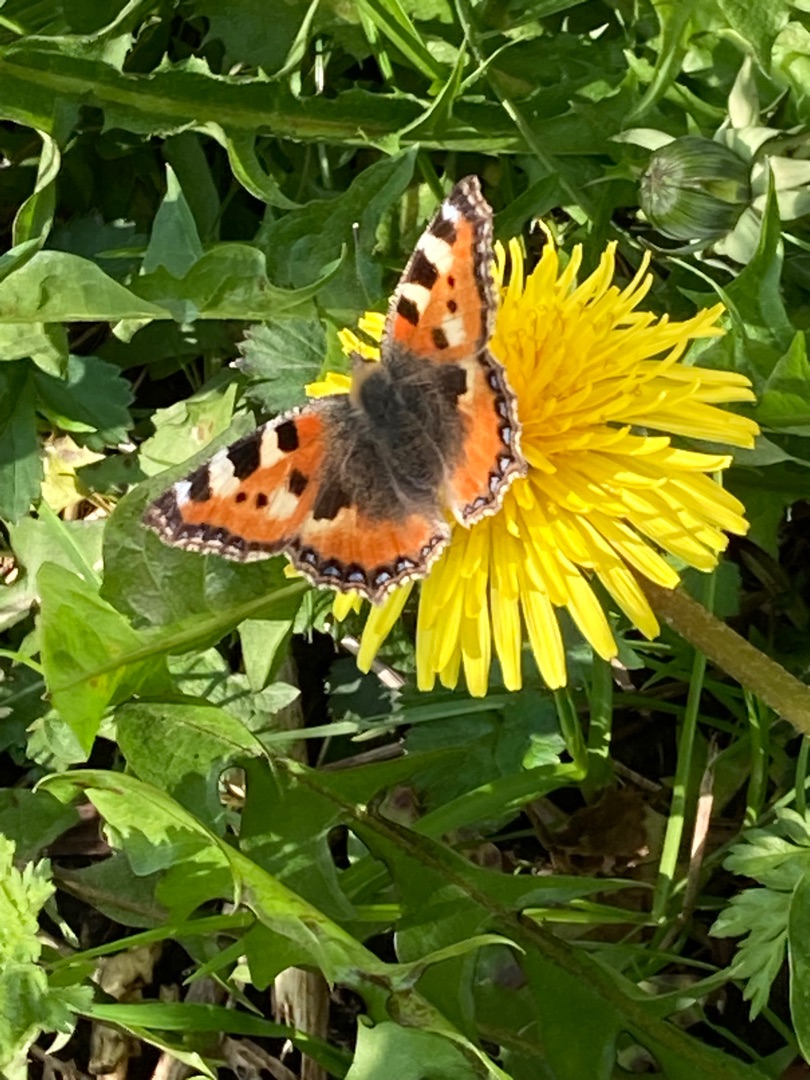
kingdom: Animalia
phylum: Arthropoda
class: Insecta
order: Lepidoptera
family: Nymphalidae
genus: Aglais
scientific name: Aglais urticae
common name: Nældens takvinge
